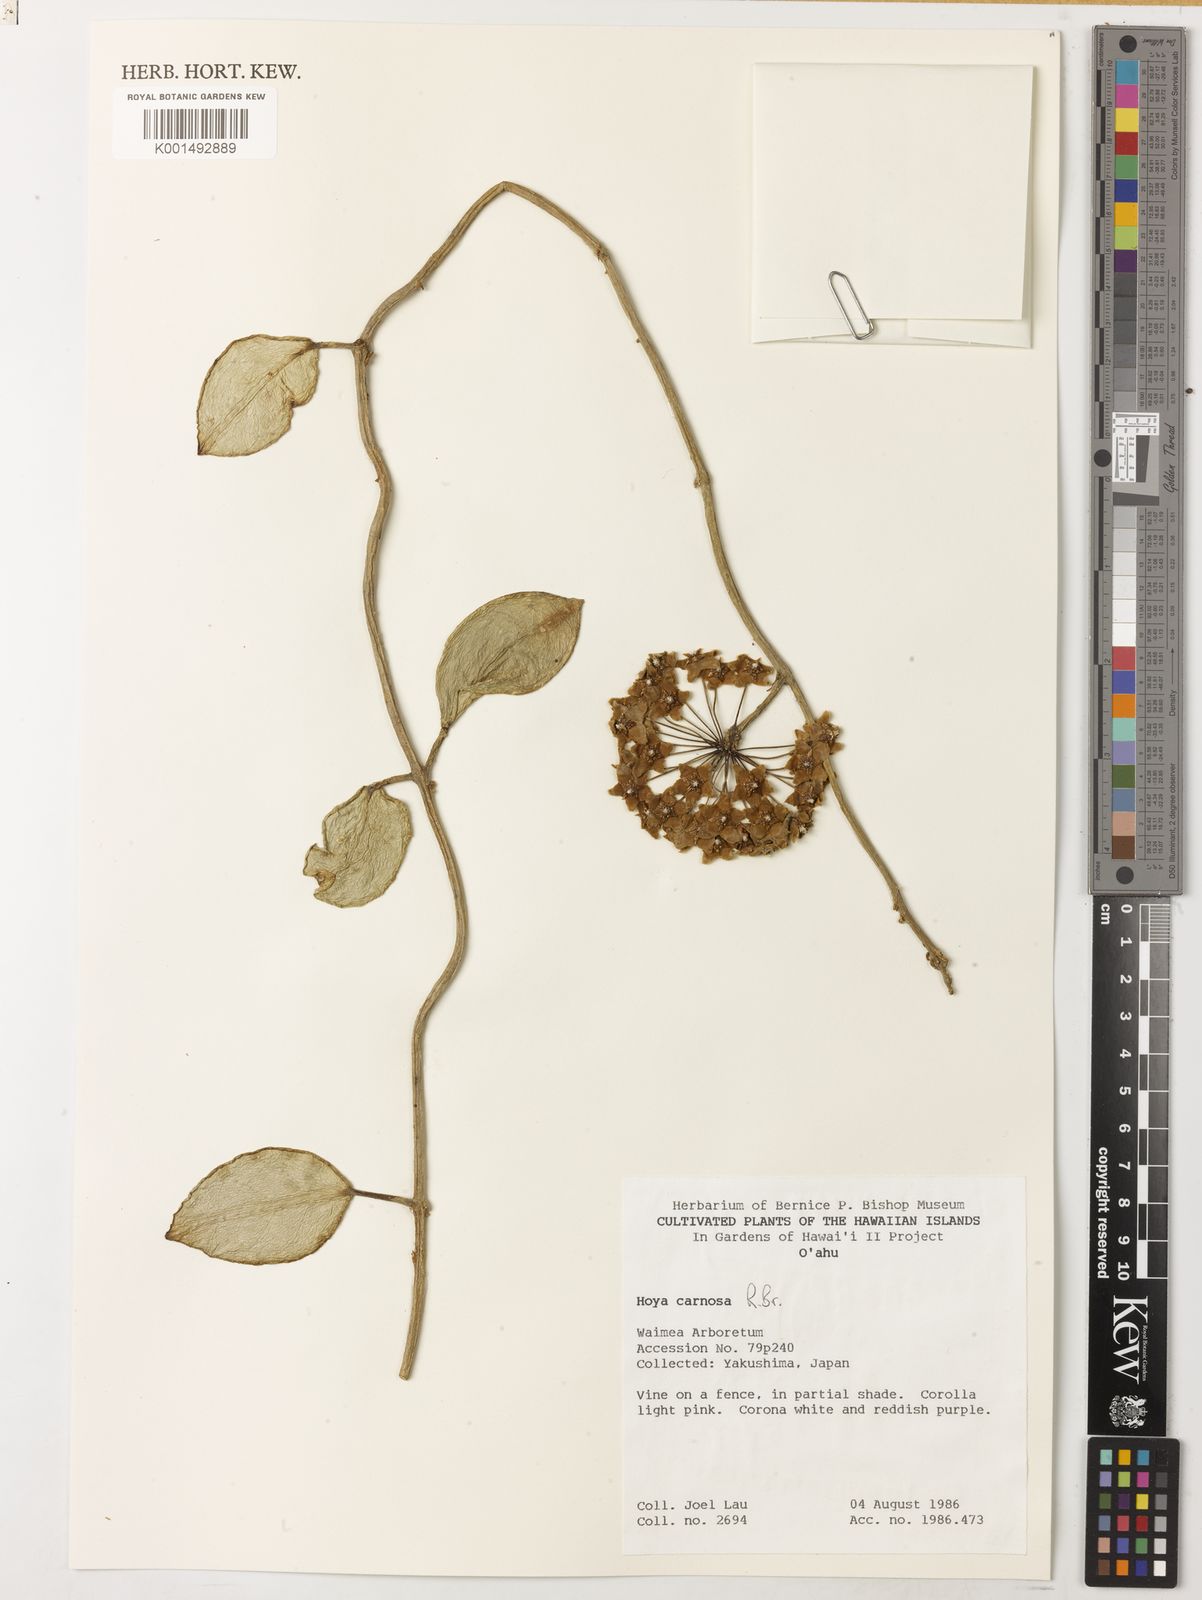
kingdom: Plantae
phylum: Tracheophyta
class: Magnoliopsida
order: Gentianales
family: Apocynaceae
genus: Hoya
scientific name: Hoya carnosa
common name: Honeyplant
